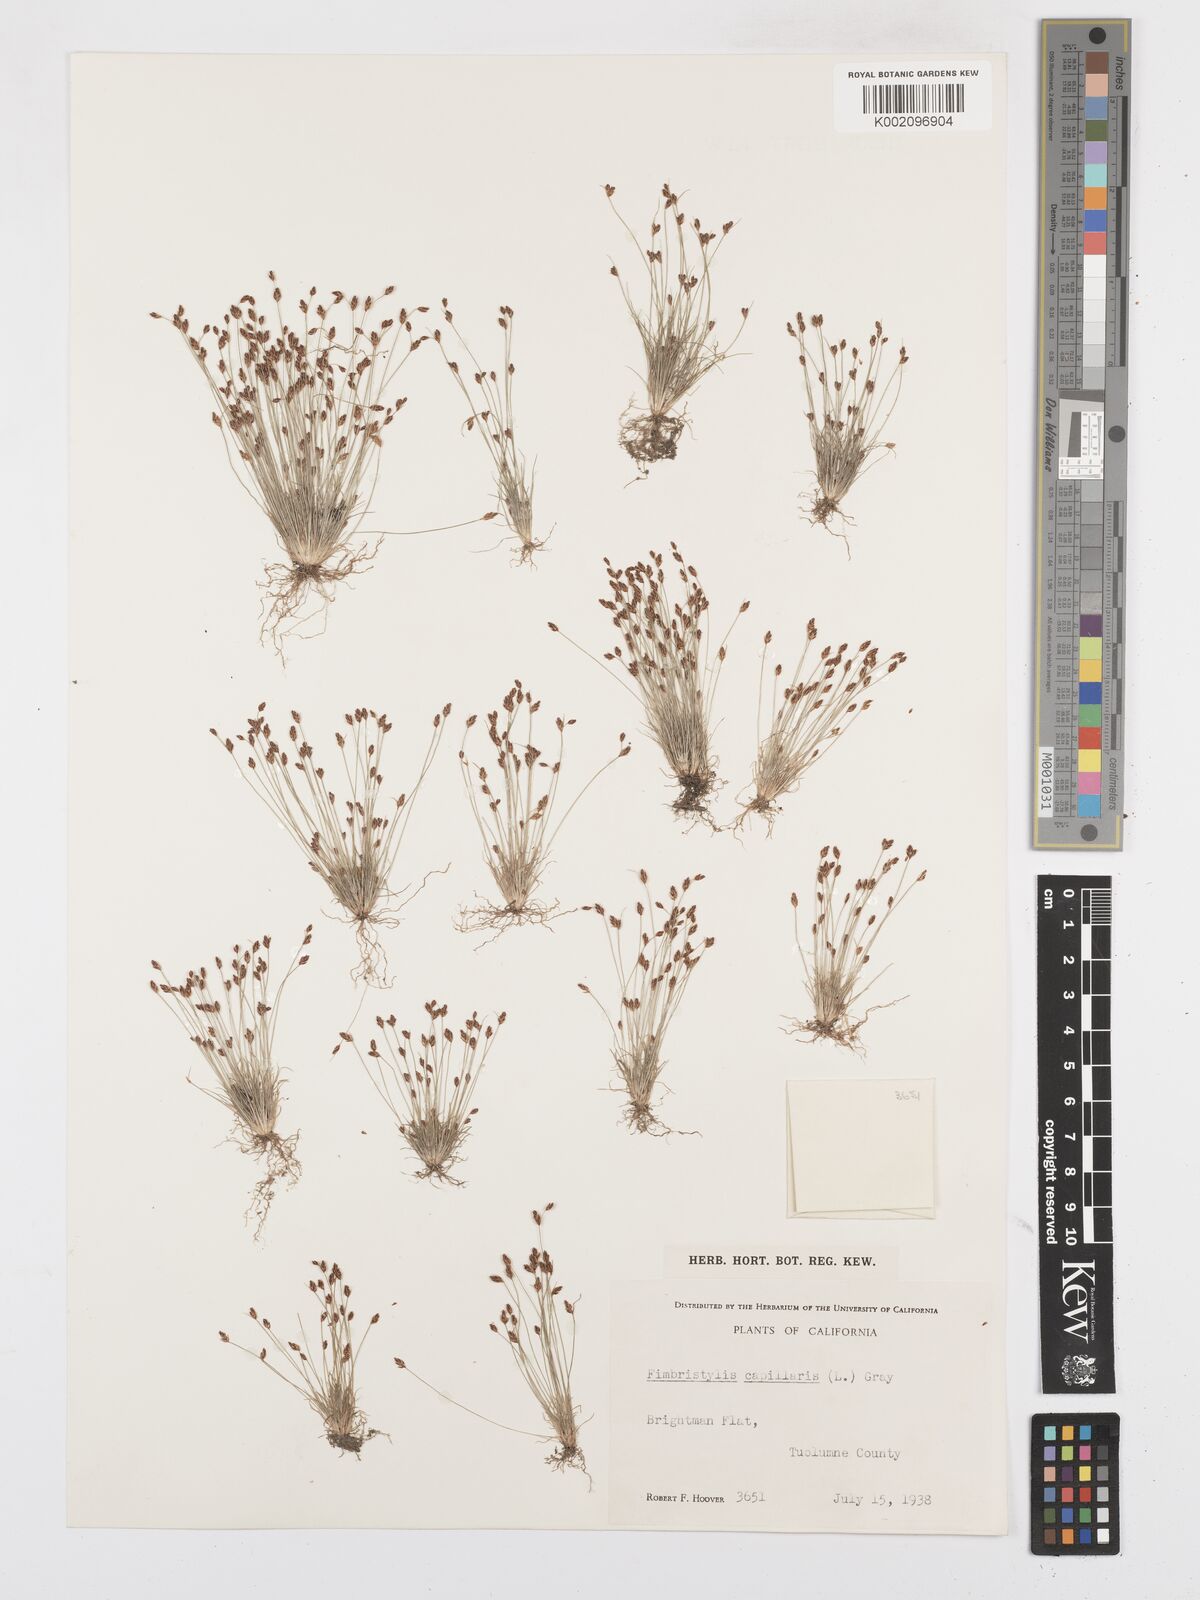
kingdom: Plantae
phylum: Tracheophyta
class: Liliopsida
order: Poales
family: Cyperaceae
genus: Bulbostylis
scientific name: Bulbostylis capillaris
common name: Densetuft hairsedge
